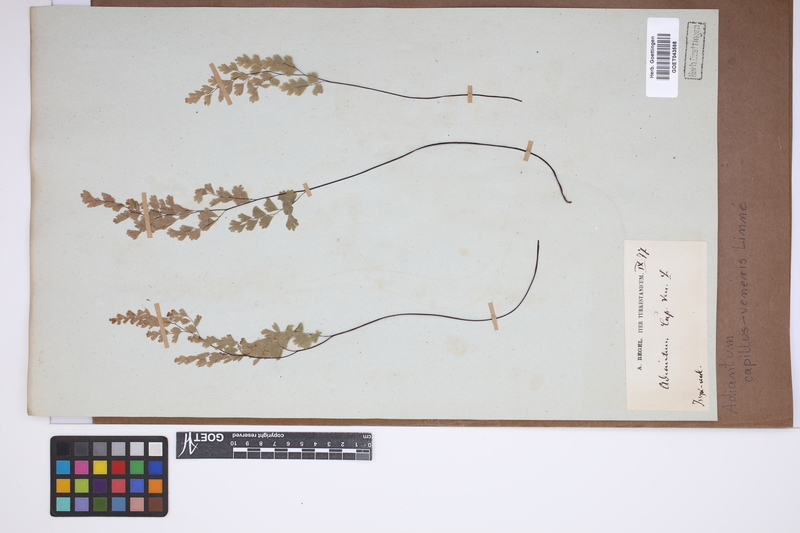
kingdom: Plantae
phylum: Tracheophyta
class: Polypodiopsida
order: Polypodiales
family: Pteridaceae
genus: Adiantum
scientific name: Adiantum capillus-veneris
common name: Maidenhair fern
